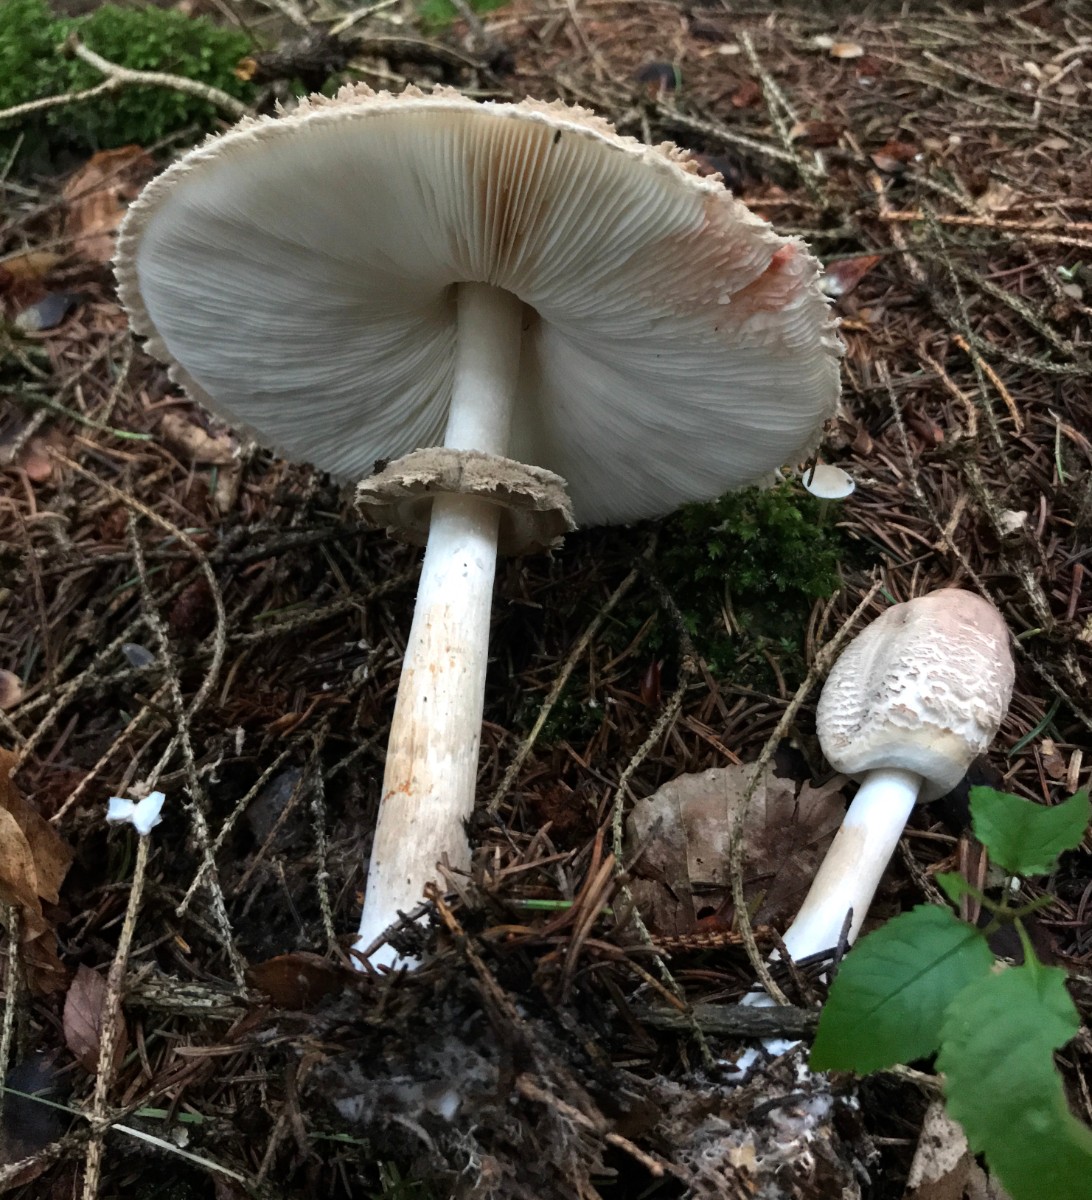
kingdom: Fungi
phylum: Basidiomycota
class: Agaricomycetes
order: Agaricales
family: Agaricaceae
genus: Chlorophyllum
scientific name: Chlorophyllum olivieri
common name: almindelig rabarberhat
